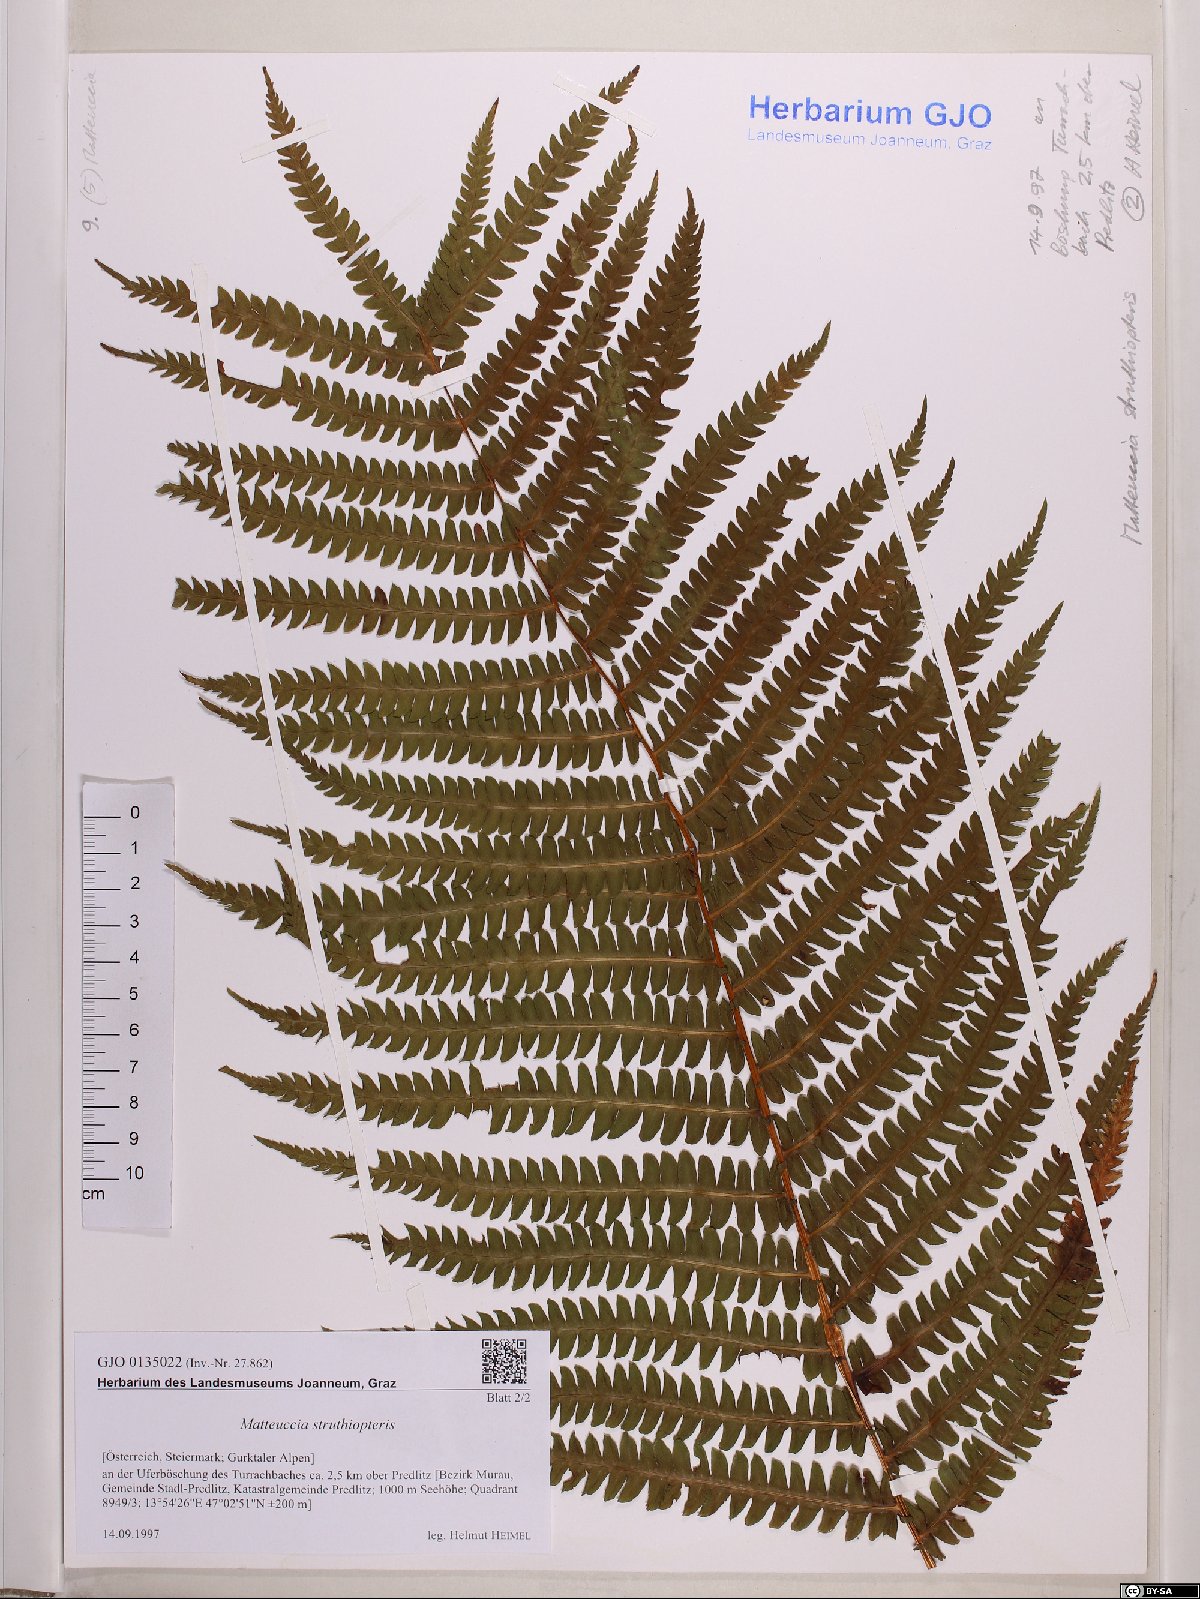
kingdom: Plantae
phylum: Tracheophyta
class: Polypodiopsida
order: Polypodiales
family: Onocleaceae
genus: Matteuccia
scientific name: Matteuccia struthiopteris
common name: Ostrich fern
